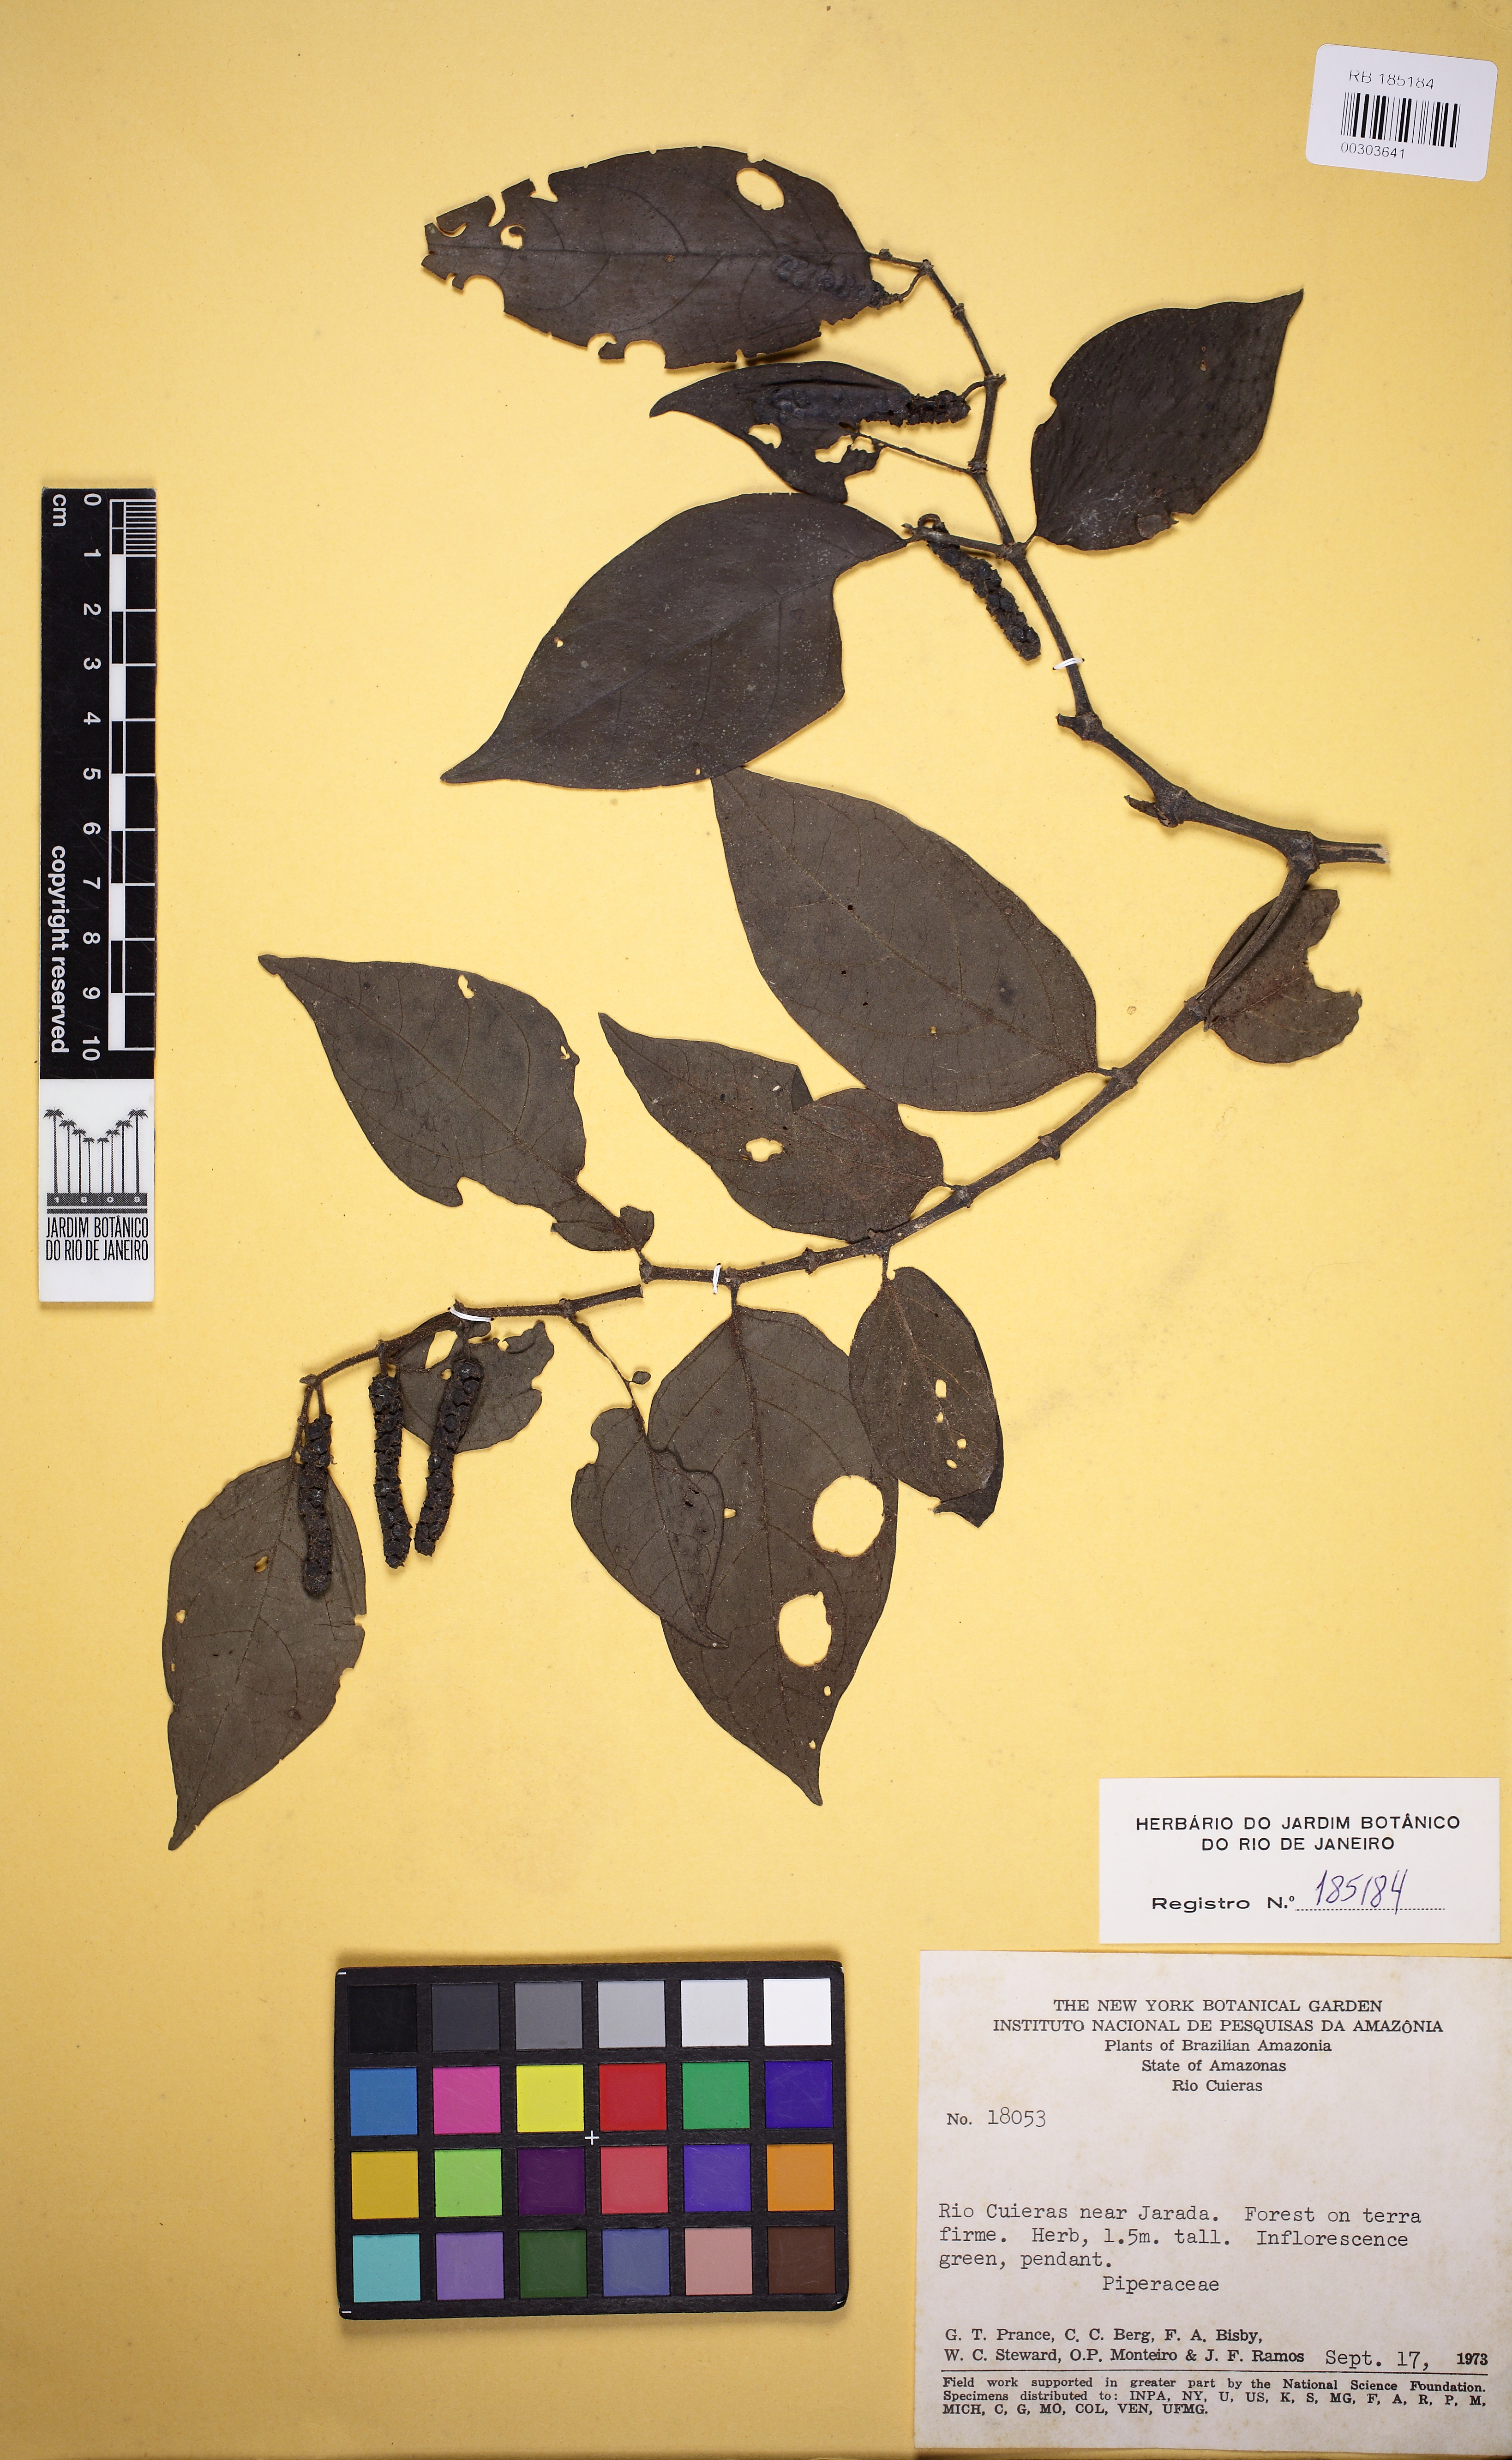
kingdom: Plantae
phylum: Tracheophyta
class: Magnoliopsida
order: Piperales
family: Piperaceae
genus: Piper
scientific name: Piper manausense
